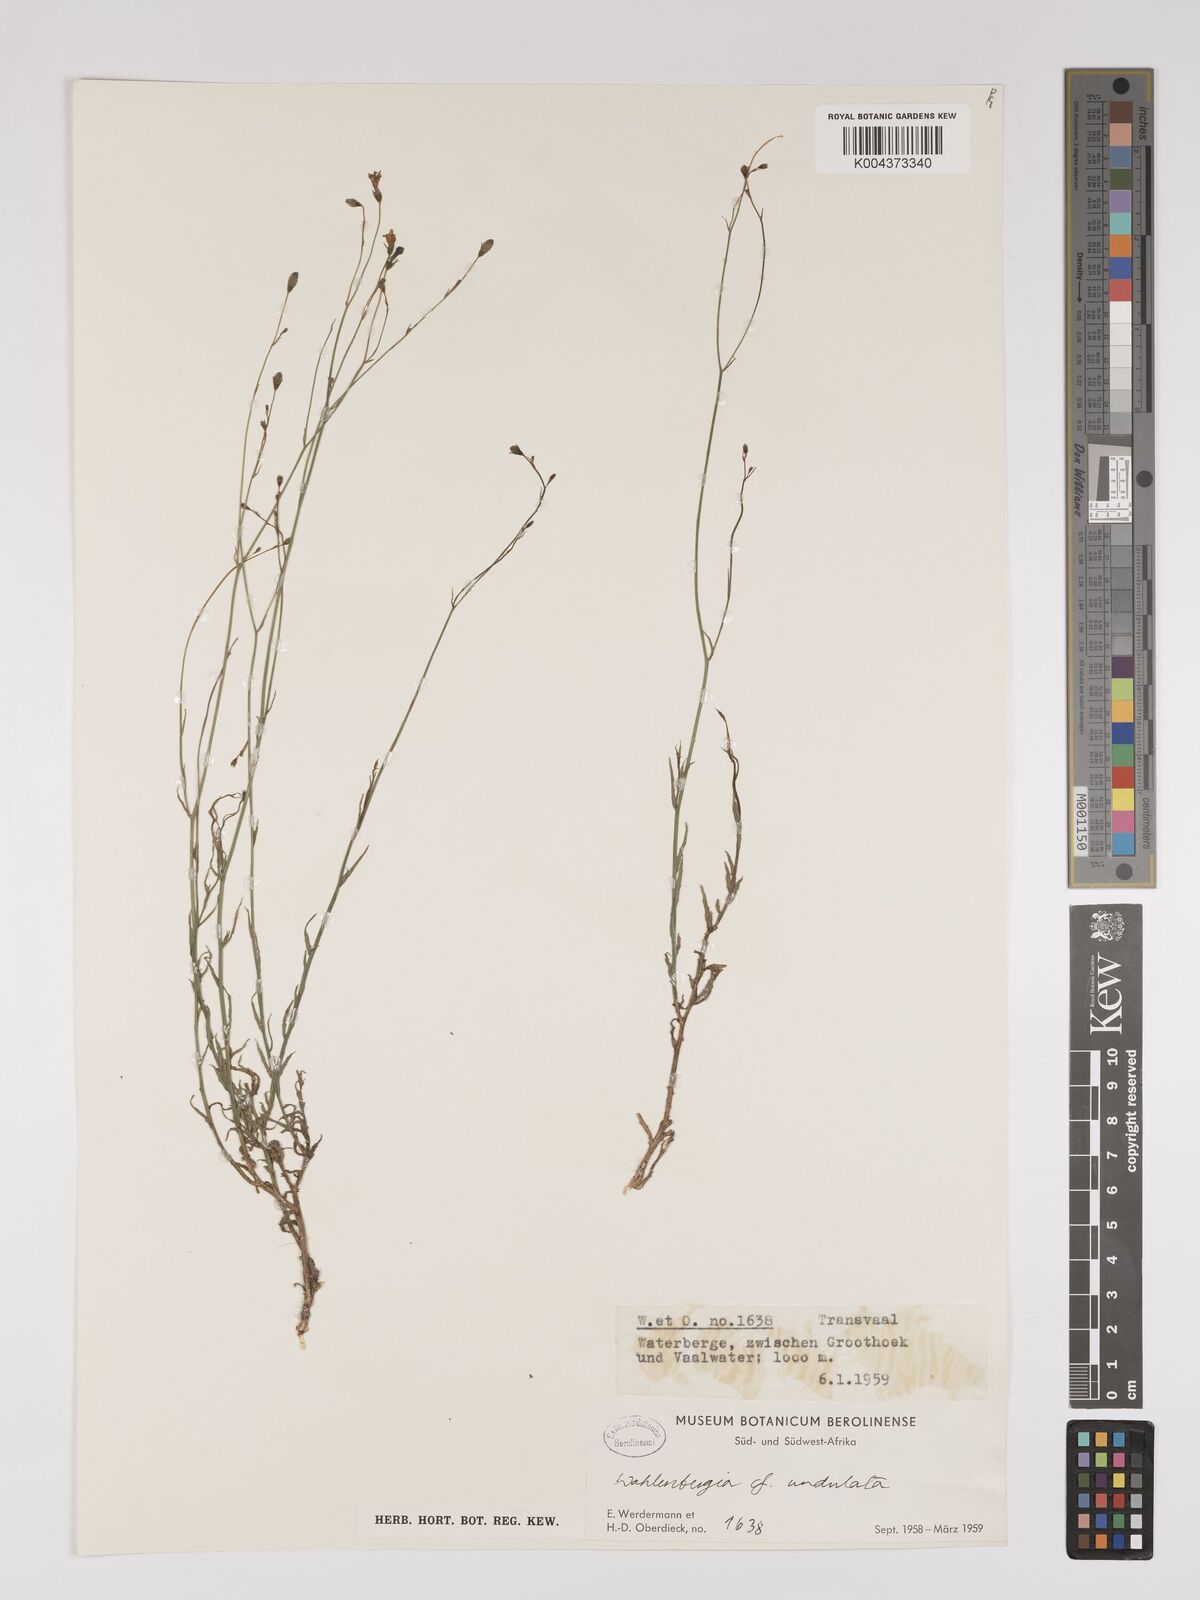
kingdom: Plantae
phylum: Tracheophyta
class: Magnoliopsida
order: Asterales
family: Campanulaceae
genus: Wahlenbergia
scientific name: Wahlenbergia undulata
